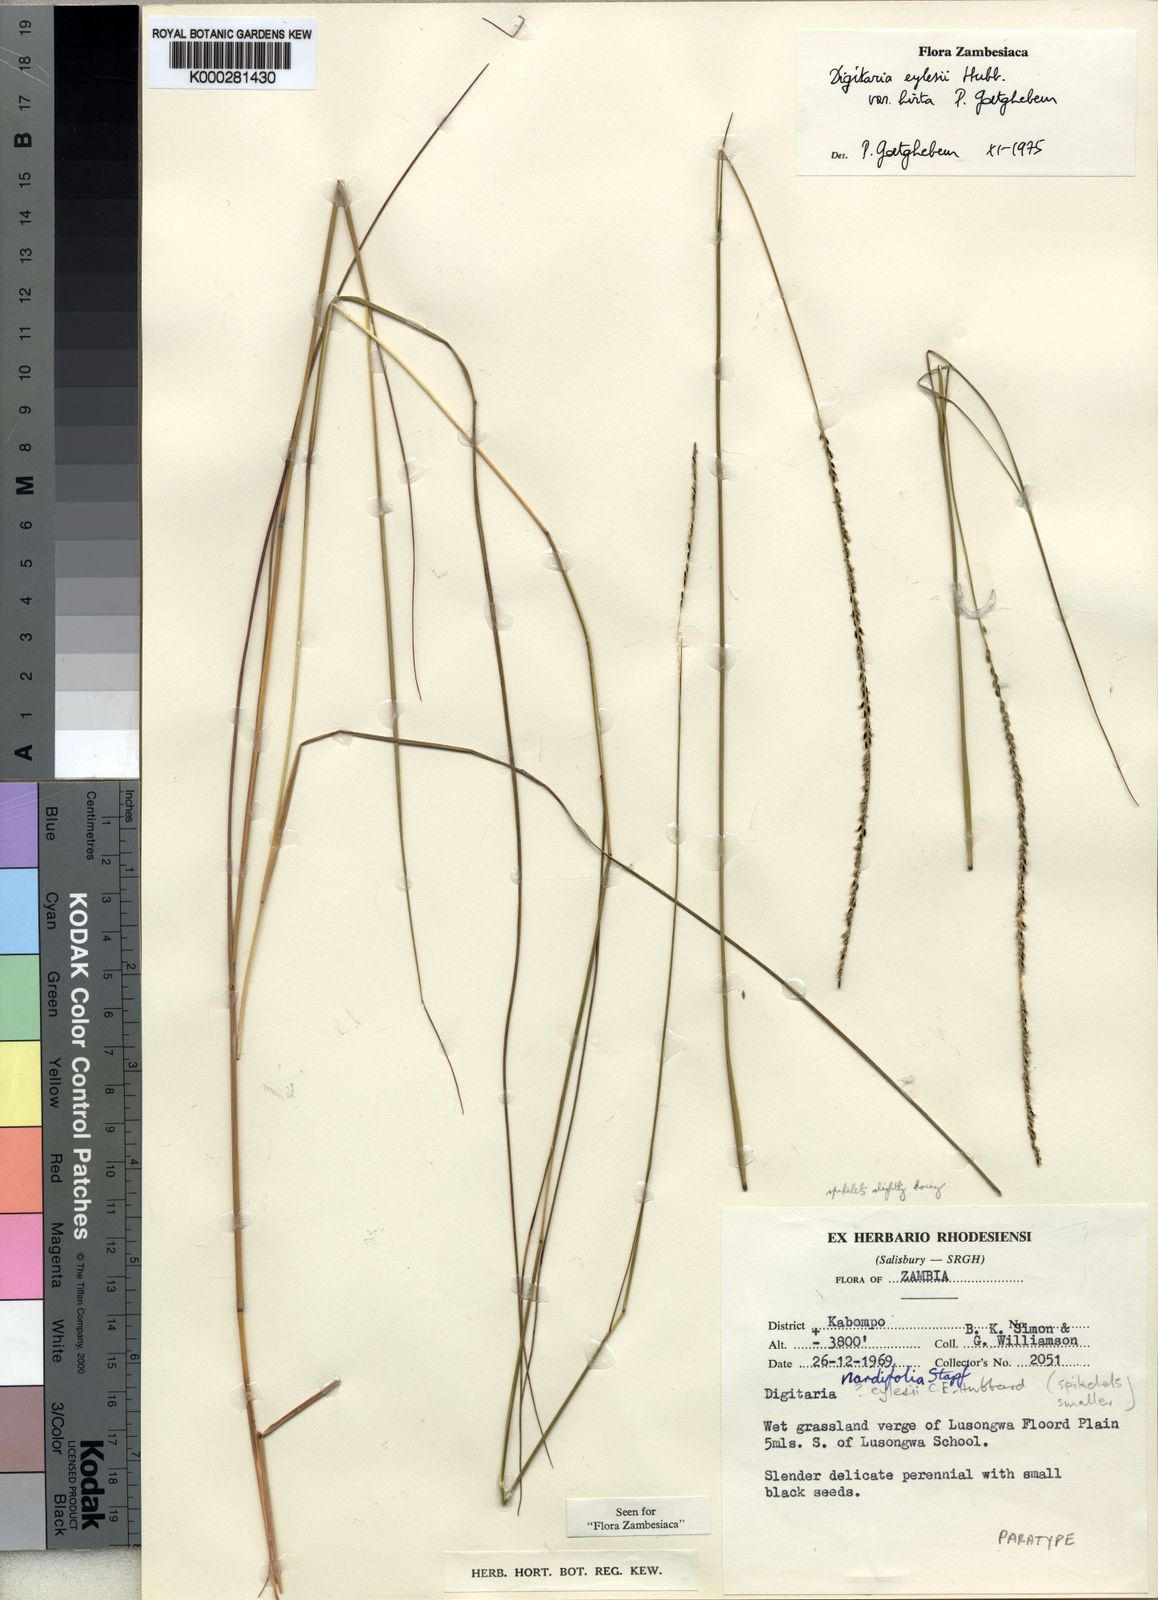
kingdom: Plantae
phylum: Tracheophyta
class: Liliopsida
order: Poales
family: Poaceae
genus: Digitaria
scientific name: Digitaria eylesii
